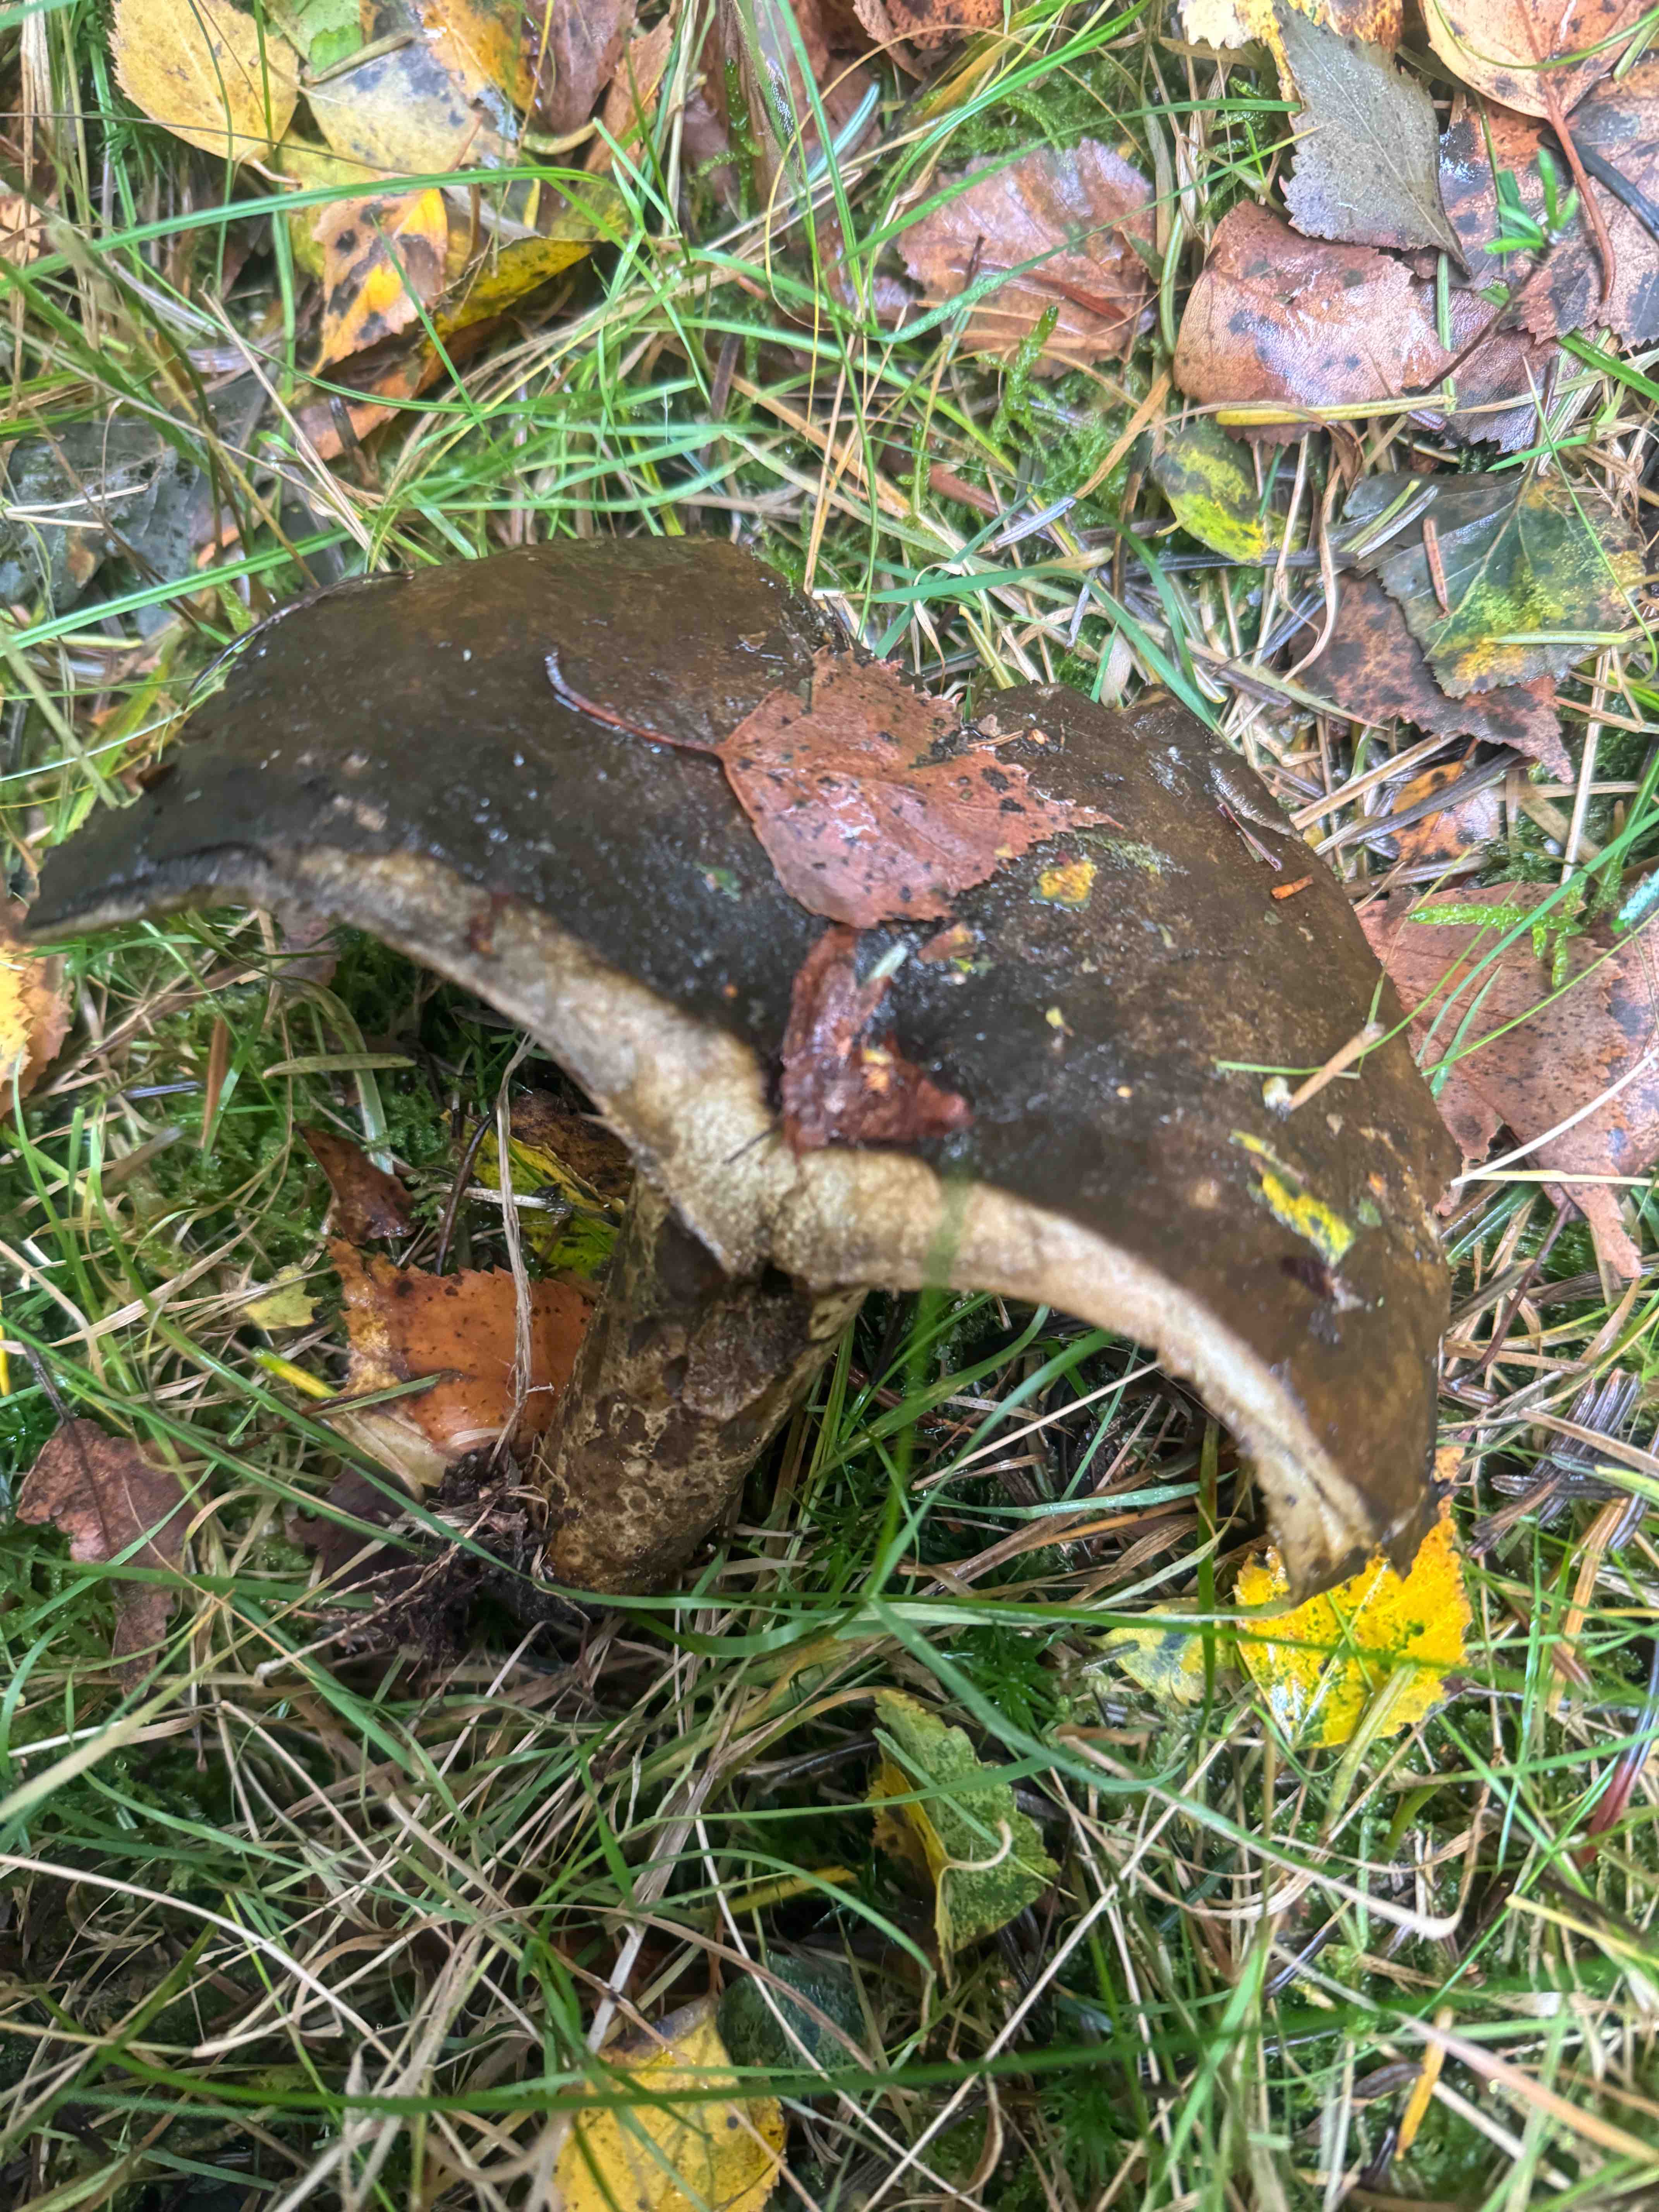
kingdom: Fungi
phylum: Basidiomycota
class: Agaricomycetes
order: Russulales
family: Russulaceae
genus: Lactarius
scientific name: Lactarius necator
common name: manddraber-mælkehat
